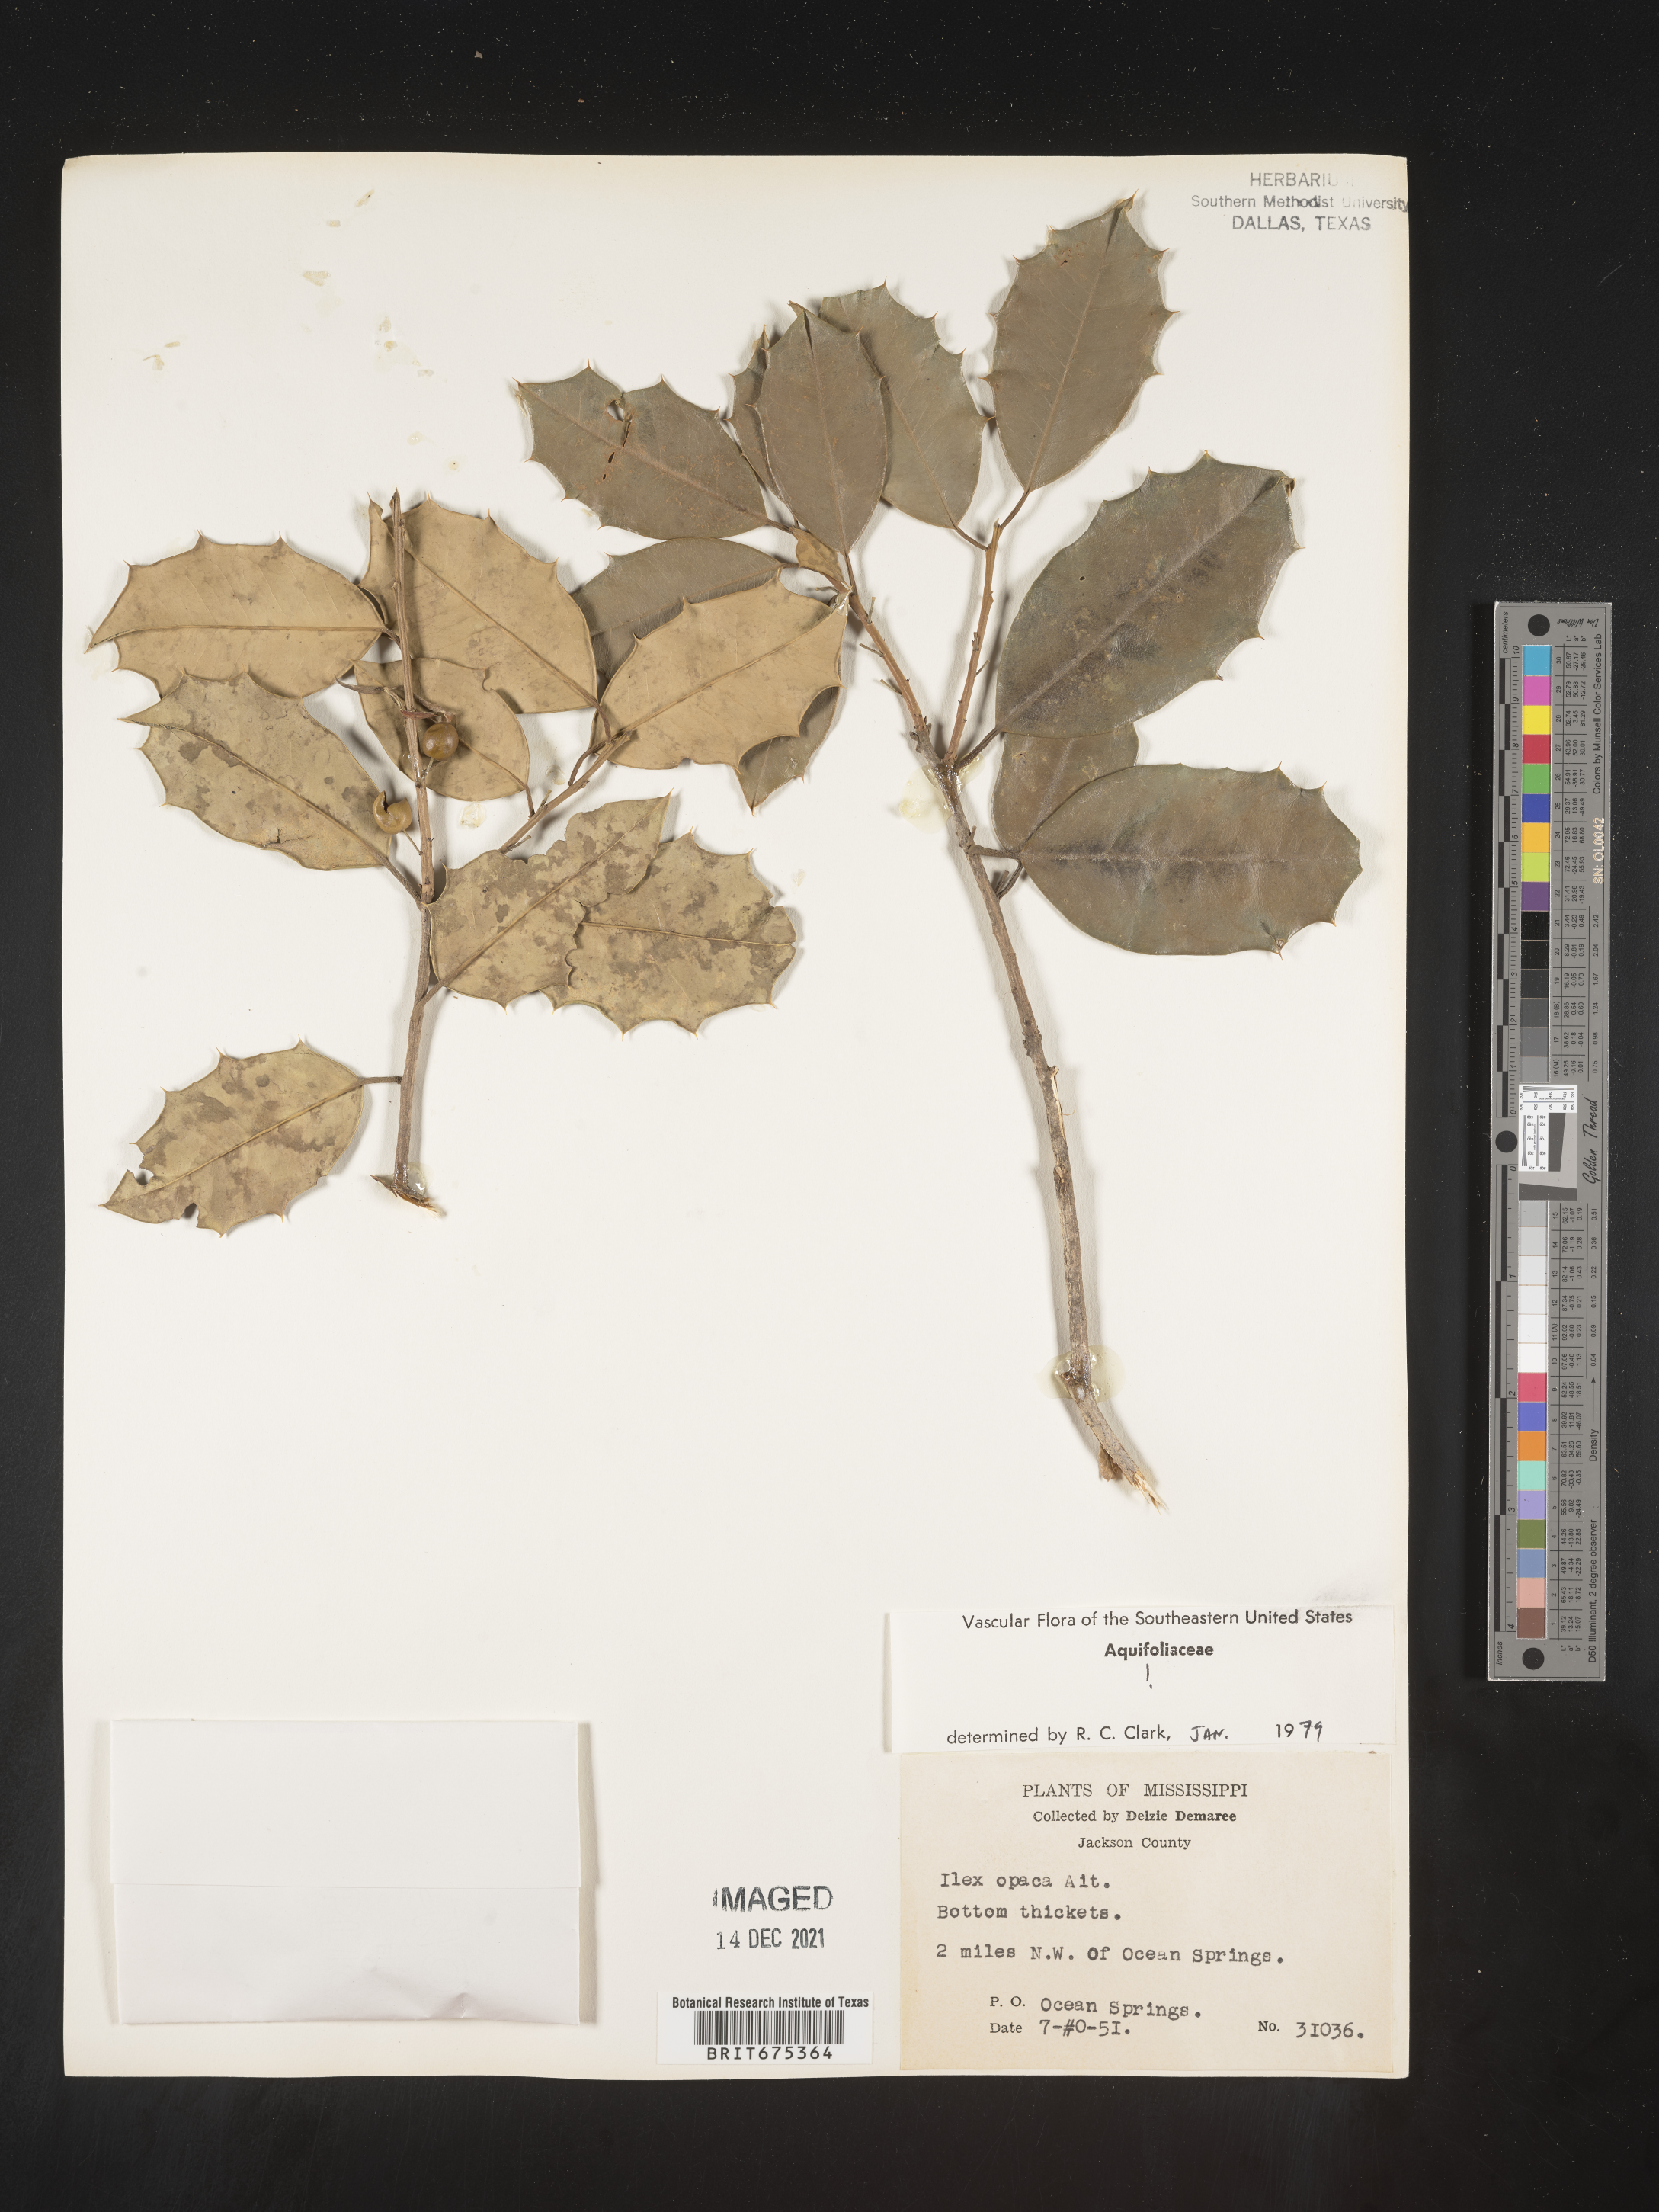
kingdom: Plantae
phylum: Tracheophyta
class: Magnoliopsida
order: Aquifoliales
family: Aquifoliaceae
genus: Ilex
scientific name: Ilex opaca
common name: American holly
